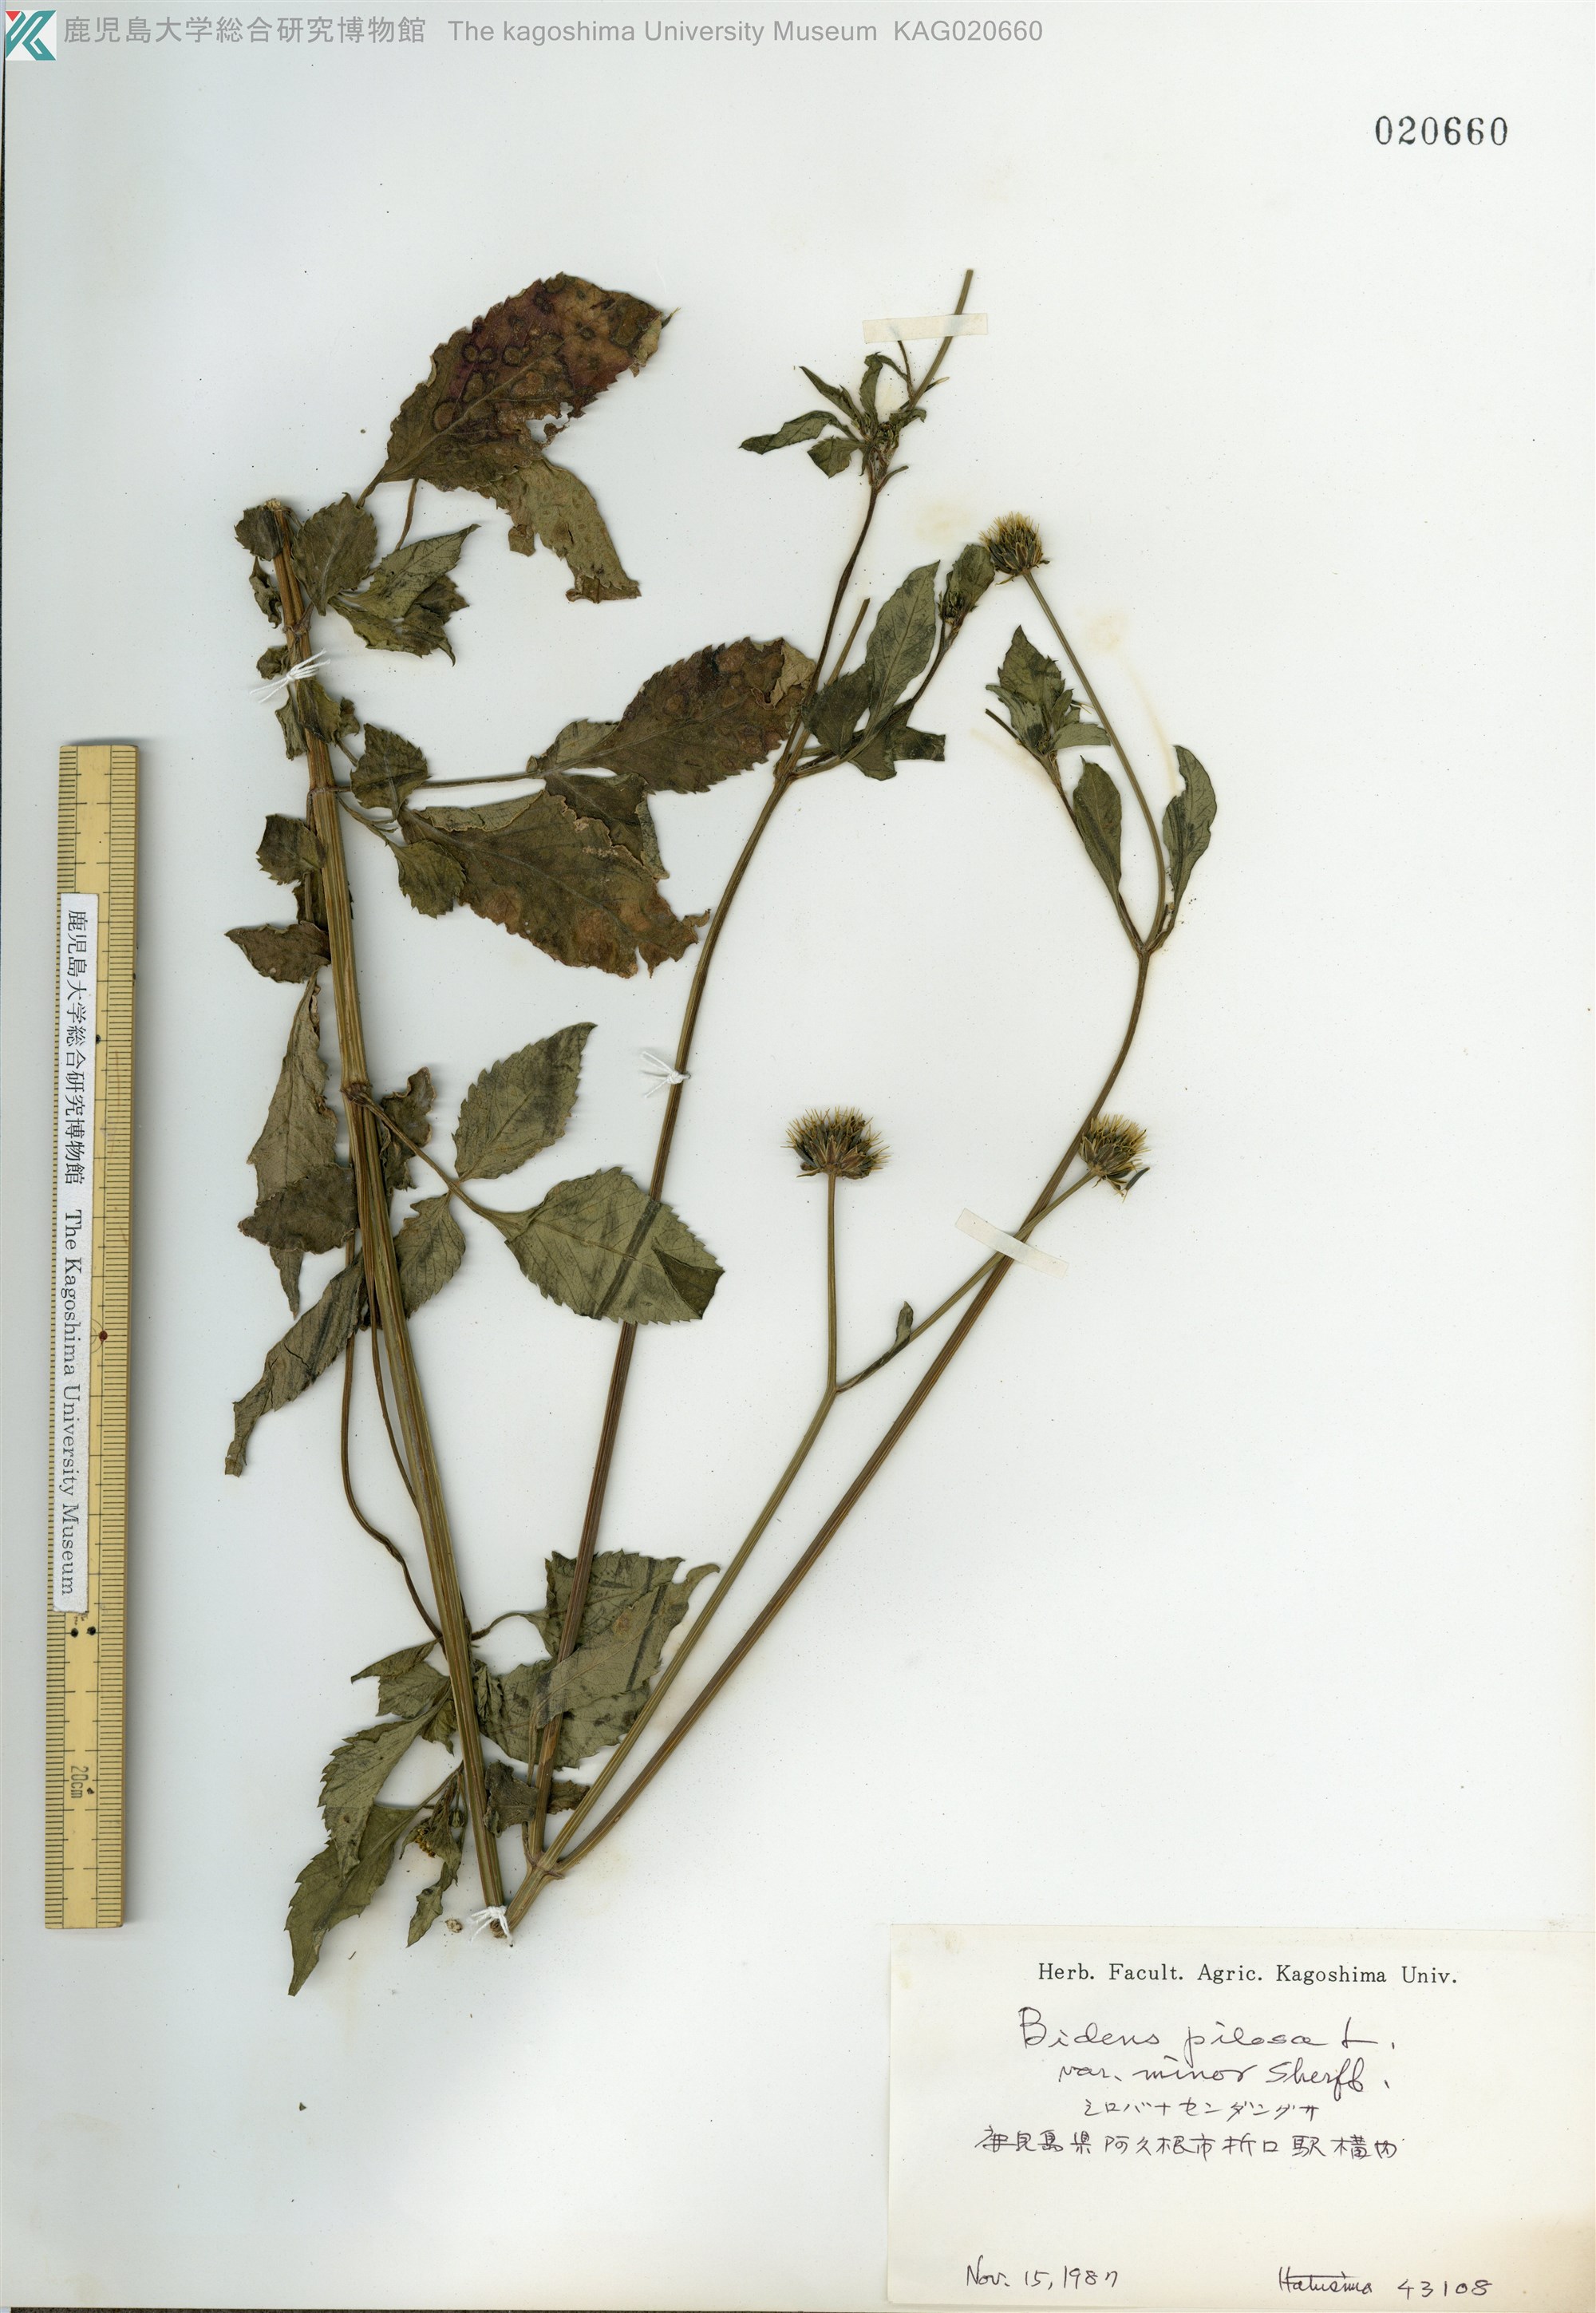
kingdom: Plantae
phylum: Tracheophyta
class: Magnoliopsida
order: Asterales
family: Asteraceae
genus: Bidens
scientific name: Bidens pilosa
